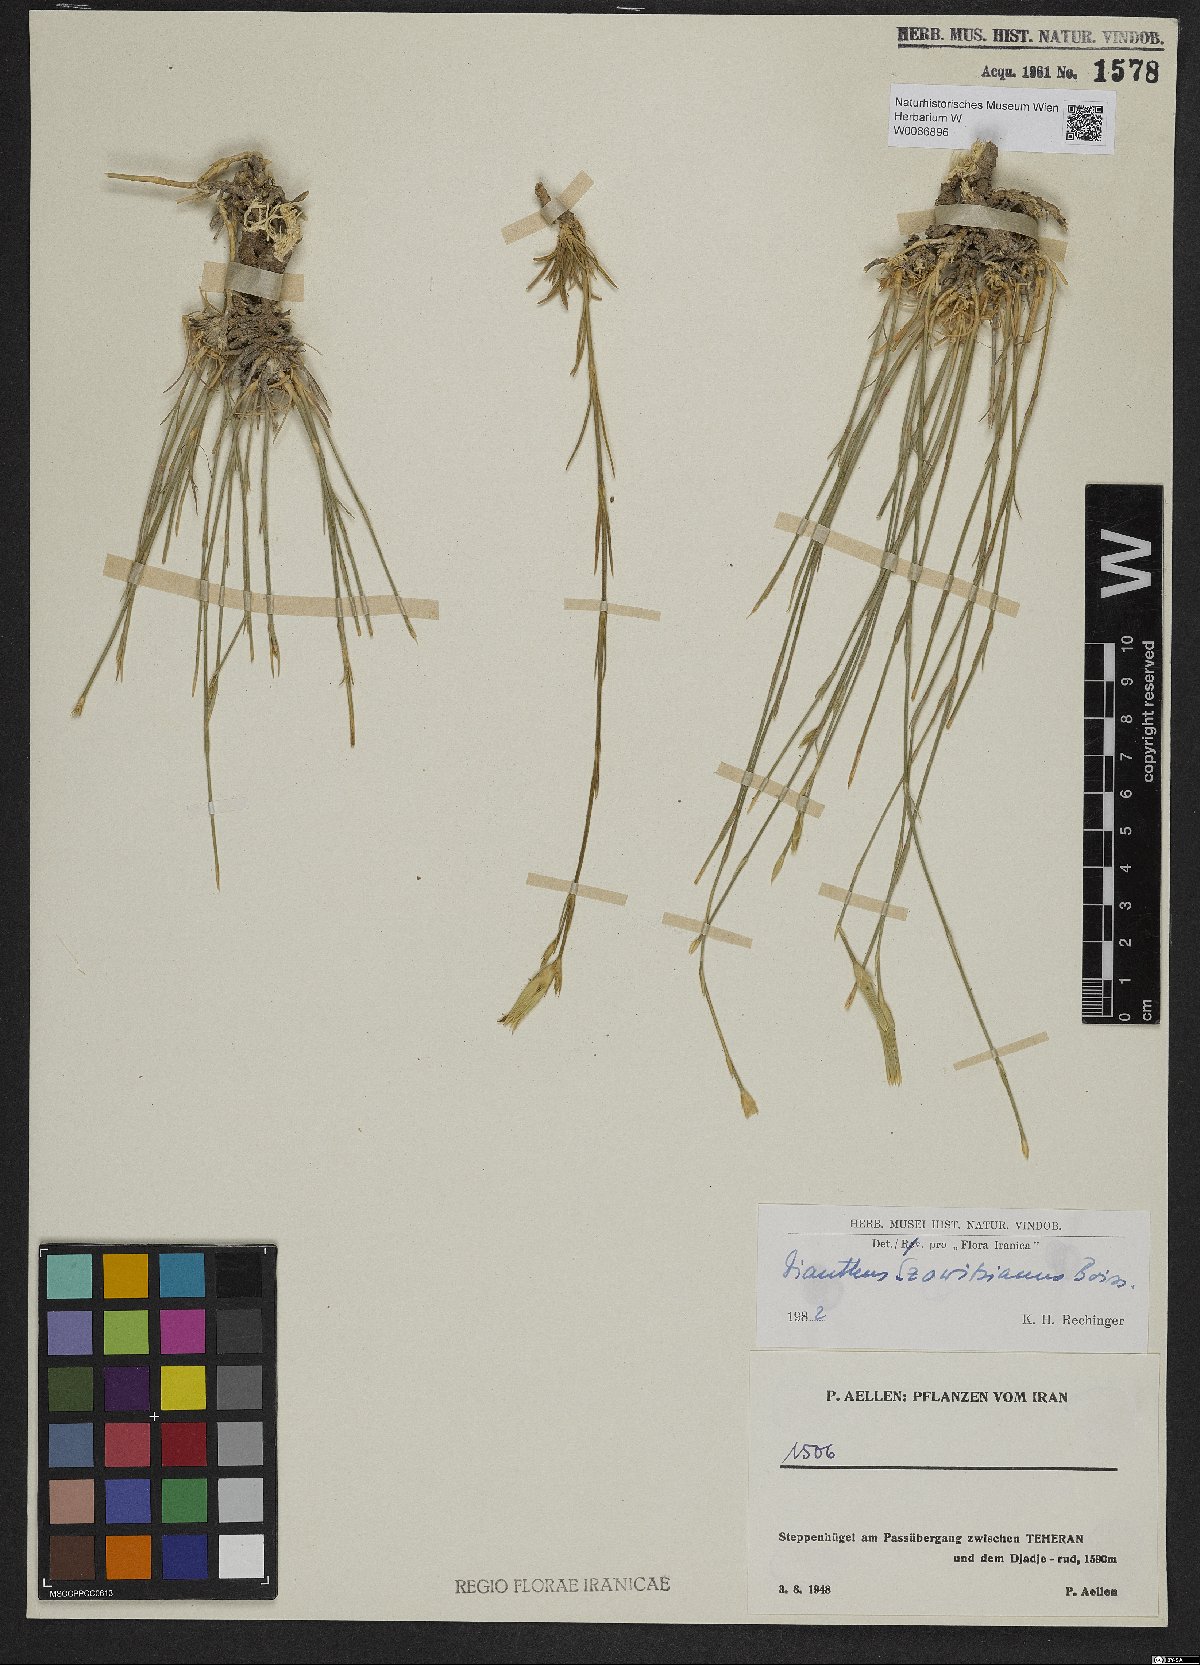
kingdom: Plantae
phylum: Tracheophyta
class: Magnoliopsida
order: Caryophyllales
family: Caryophyllaceae
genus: Dianthus
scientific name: Dianthus szowitsianus
